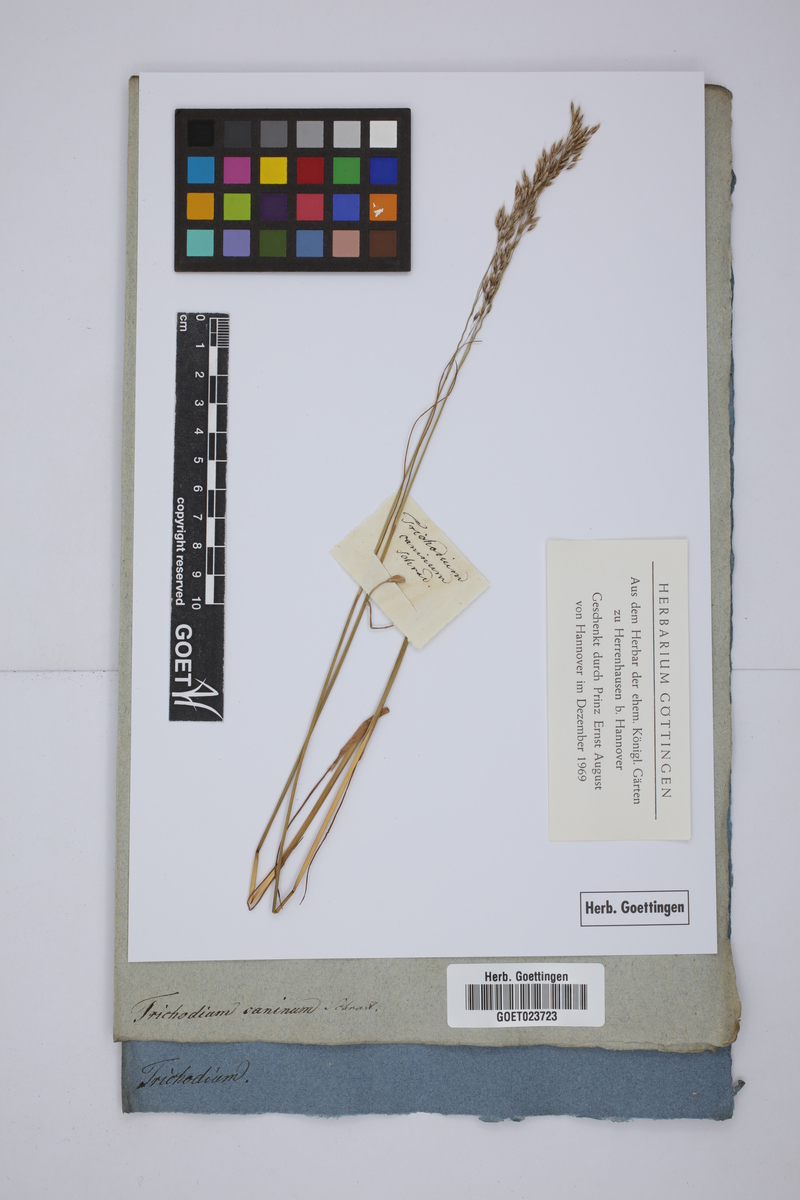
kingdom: Plantae
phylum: Tracheophyta
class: Liliopsida
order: Poales
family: Poaceae
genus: Agrostis
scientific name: Agrostis canina
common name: Velvet bent
